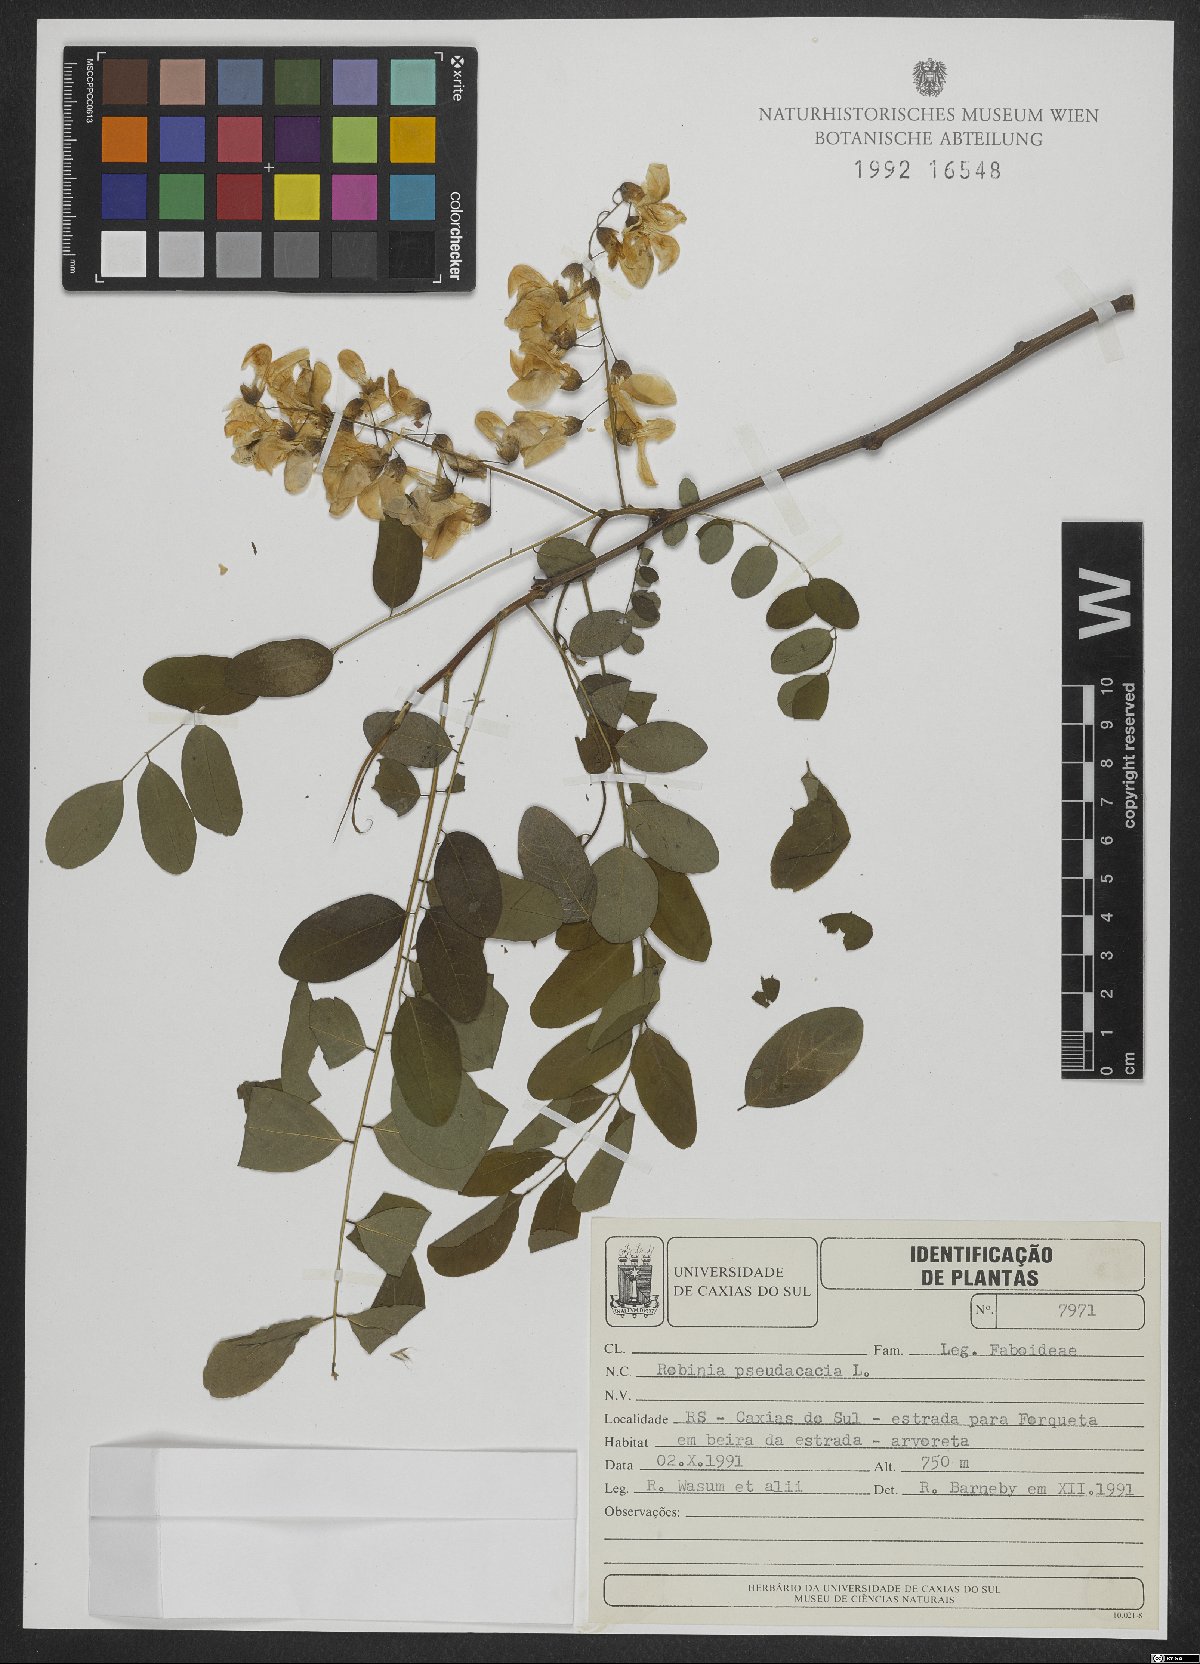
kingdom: Plantae
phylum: Tracheophyta
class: Magnoliopsida
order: Fabales
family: Fabaceae
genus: Robinia
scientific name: Robinia pseudoacacia
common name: Black locust
